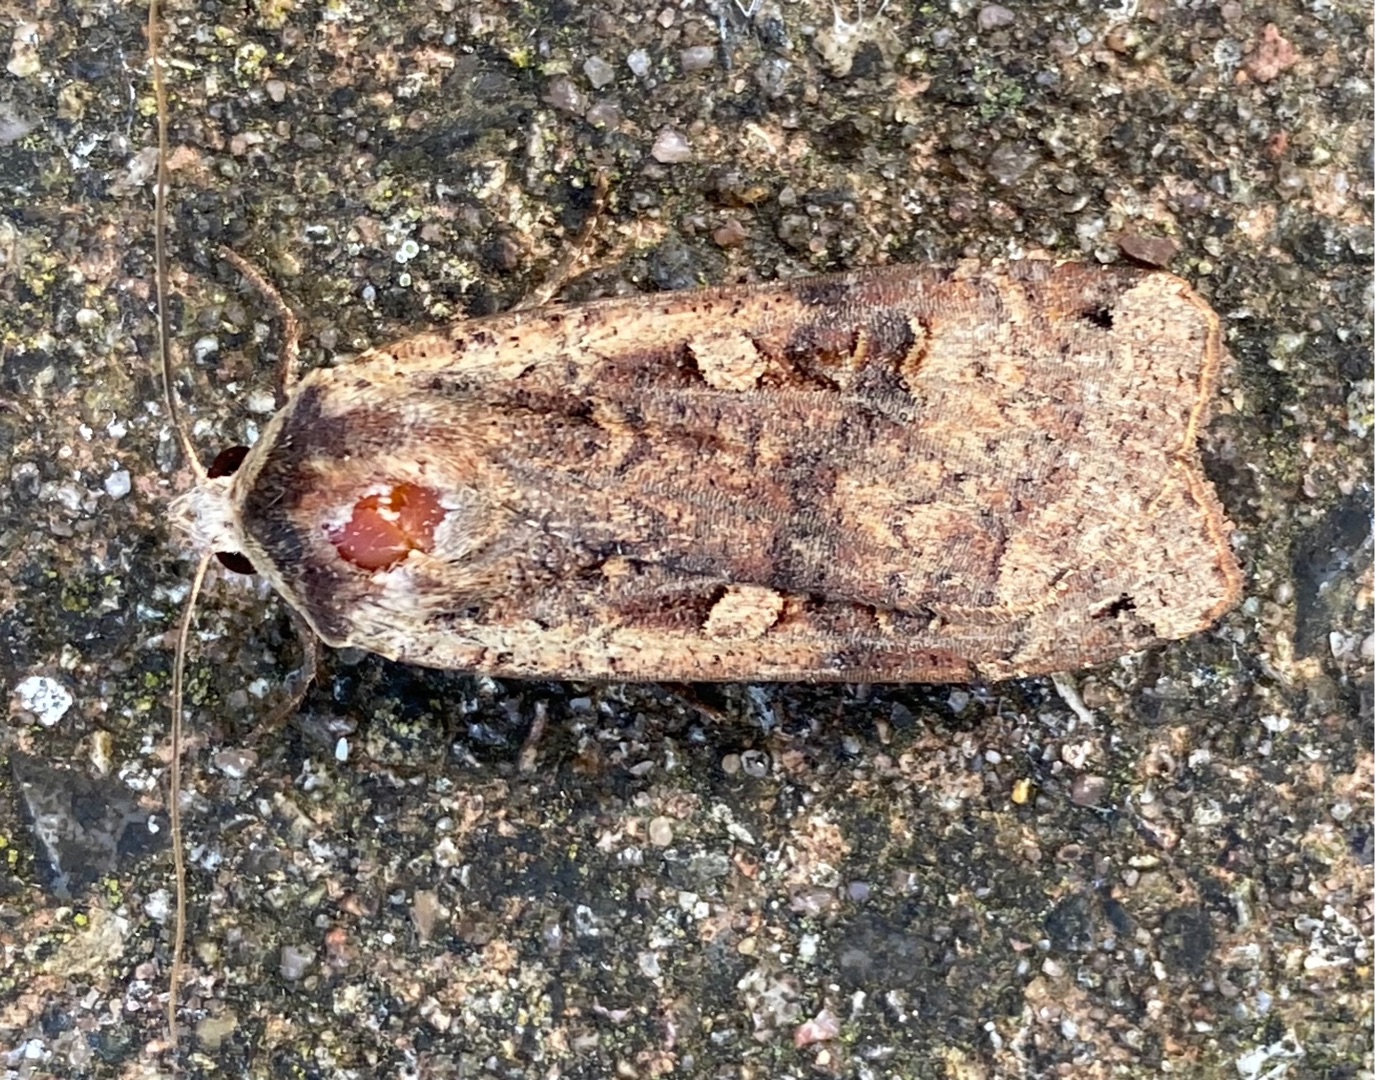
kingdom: Animalia
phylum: Arthropoda
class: Insecta
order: Lepidoptera
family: Noctuidae
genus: Noctua
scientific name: Noctua pronuba
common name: Stor smutugle
